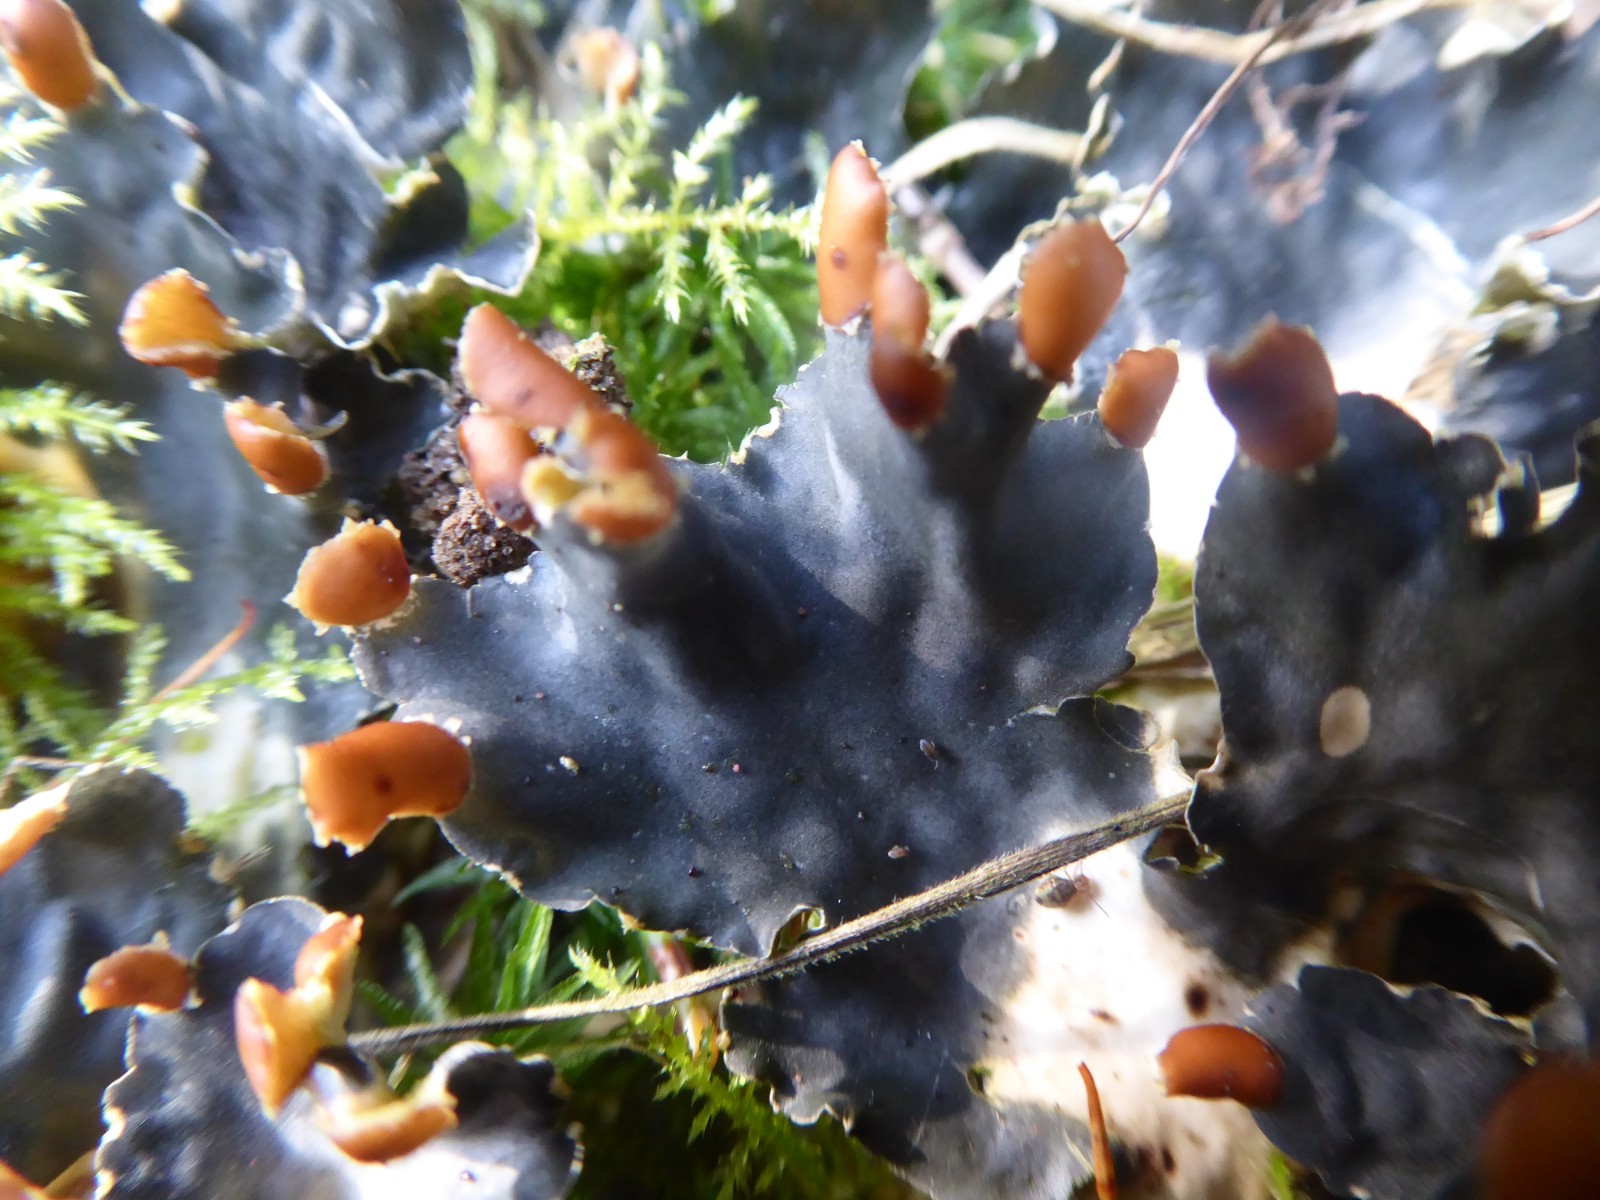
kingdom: Fungi
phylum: Ascomycota
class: Lecanoromycetes
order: Peltigerales
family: Peltigeraceae
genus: Peltigera
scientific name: Peltigera hymenina
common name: hinde-skjoldlav
